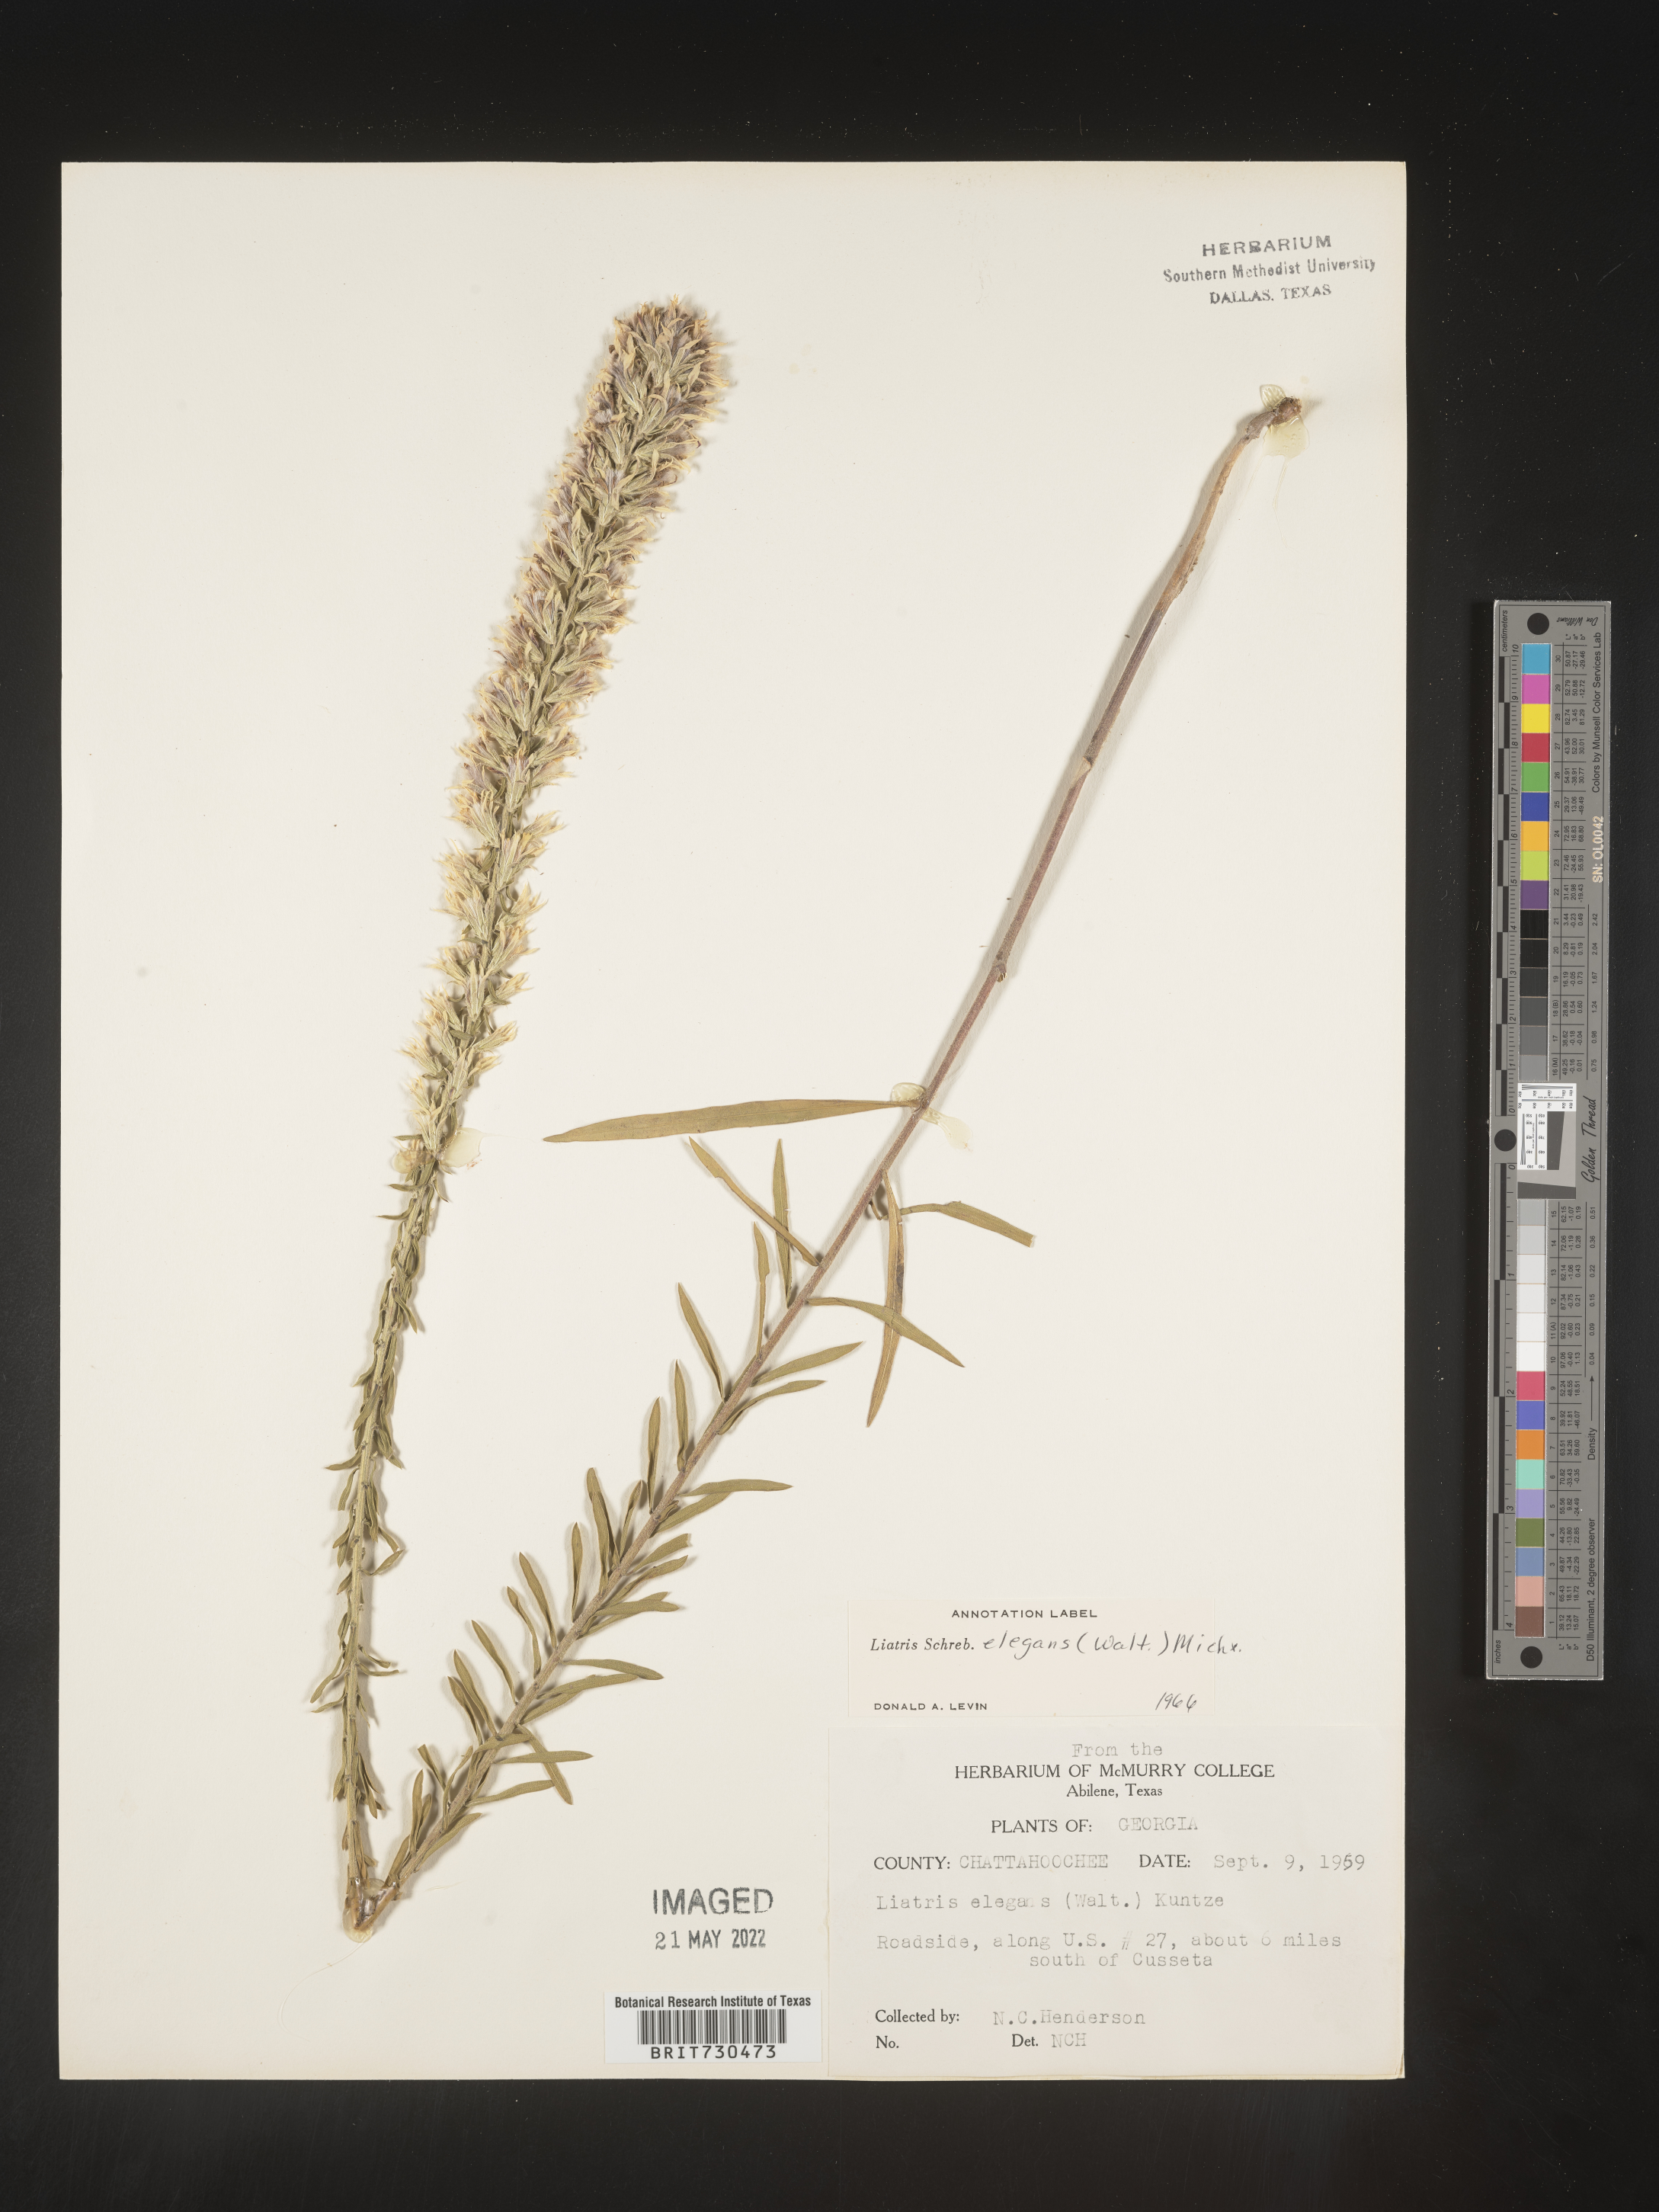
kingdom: Plantae
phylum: Tracheophyta
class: Magnoliopsida
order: Asterales
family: Asteraceae
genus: Liatris
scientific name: Liatris elegans
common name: Pinkscale gayfeather
